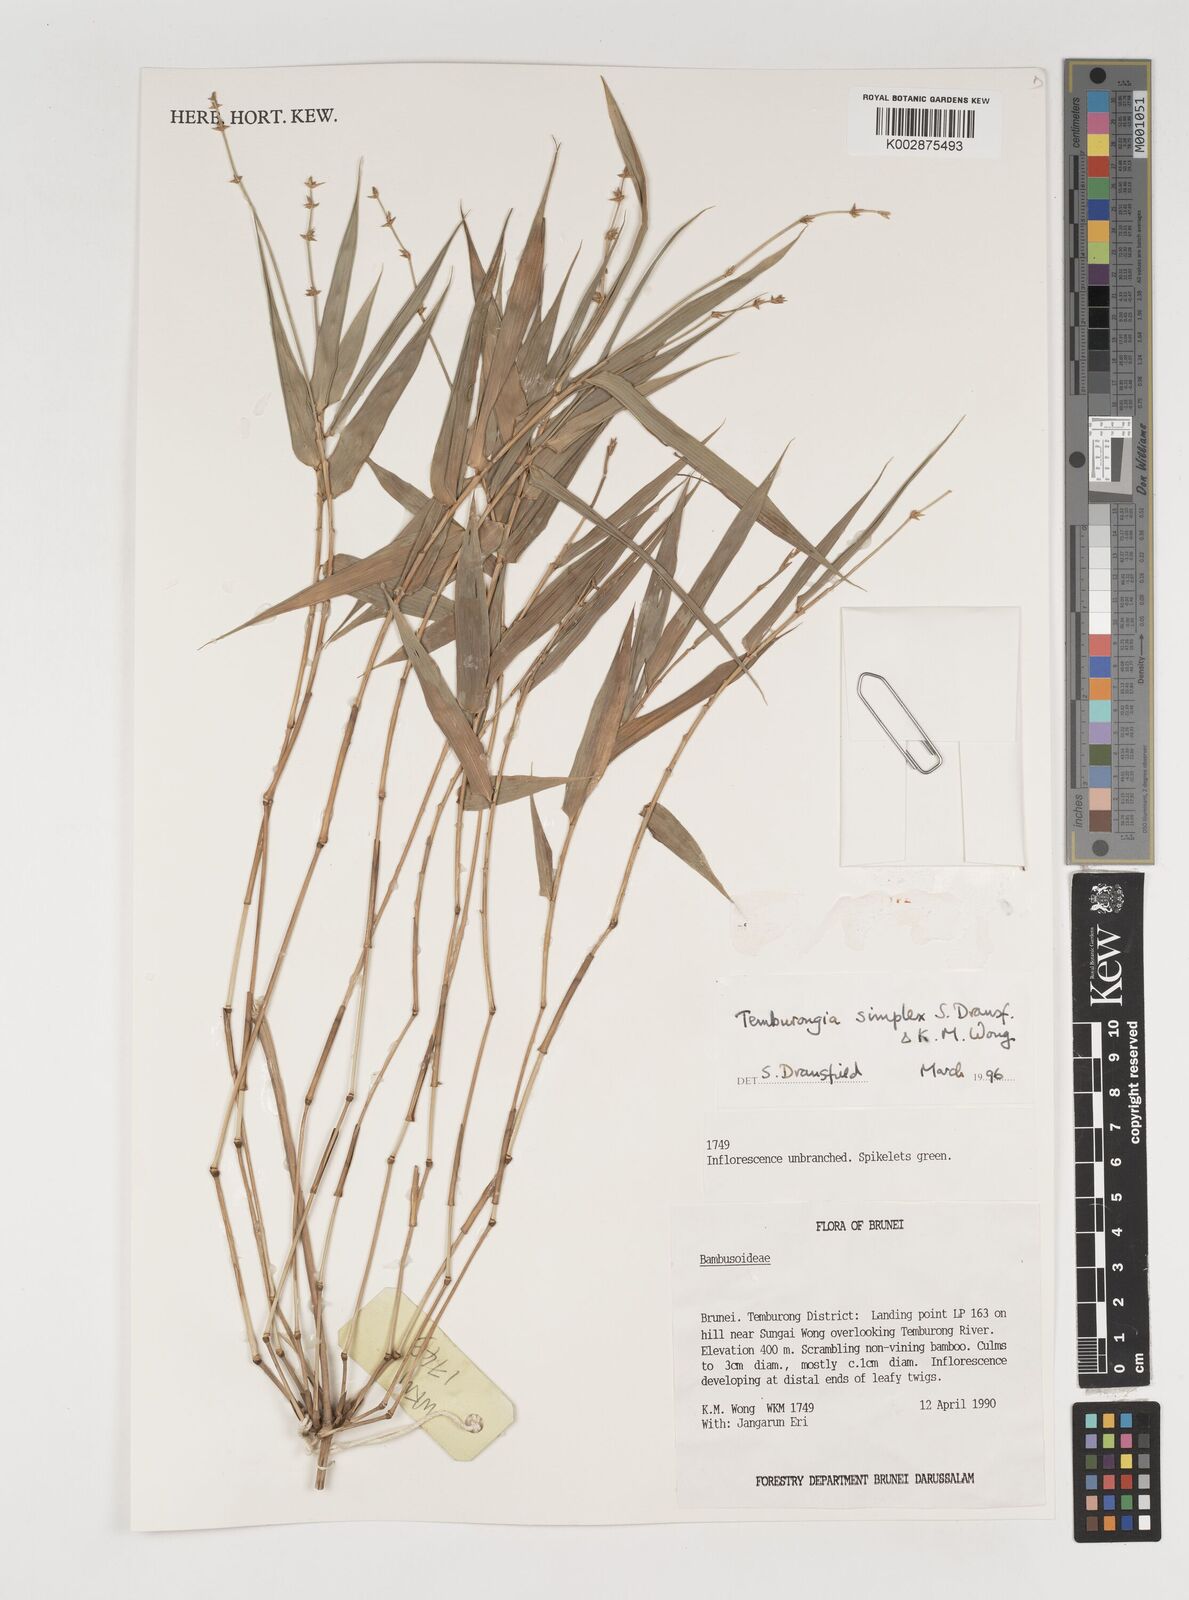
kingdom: Plantae
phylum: Tracheophyta
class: Liliopsida
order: Poales
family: Poaceae
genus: Temburongia
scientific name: Temburongia
